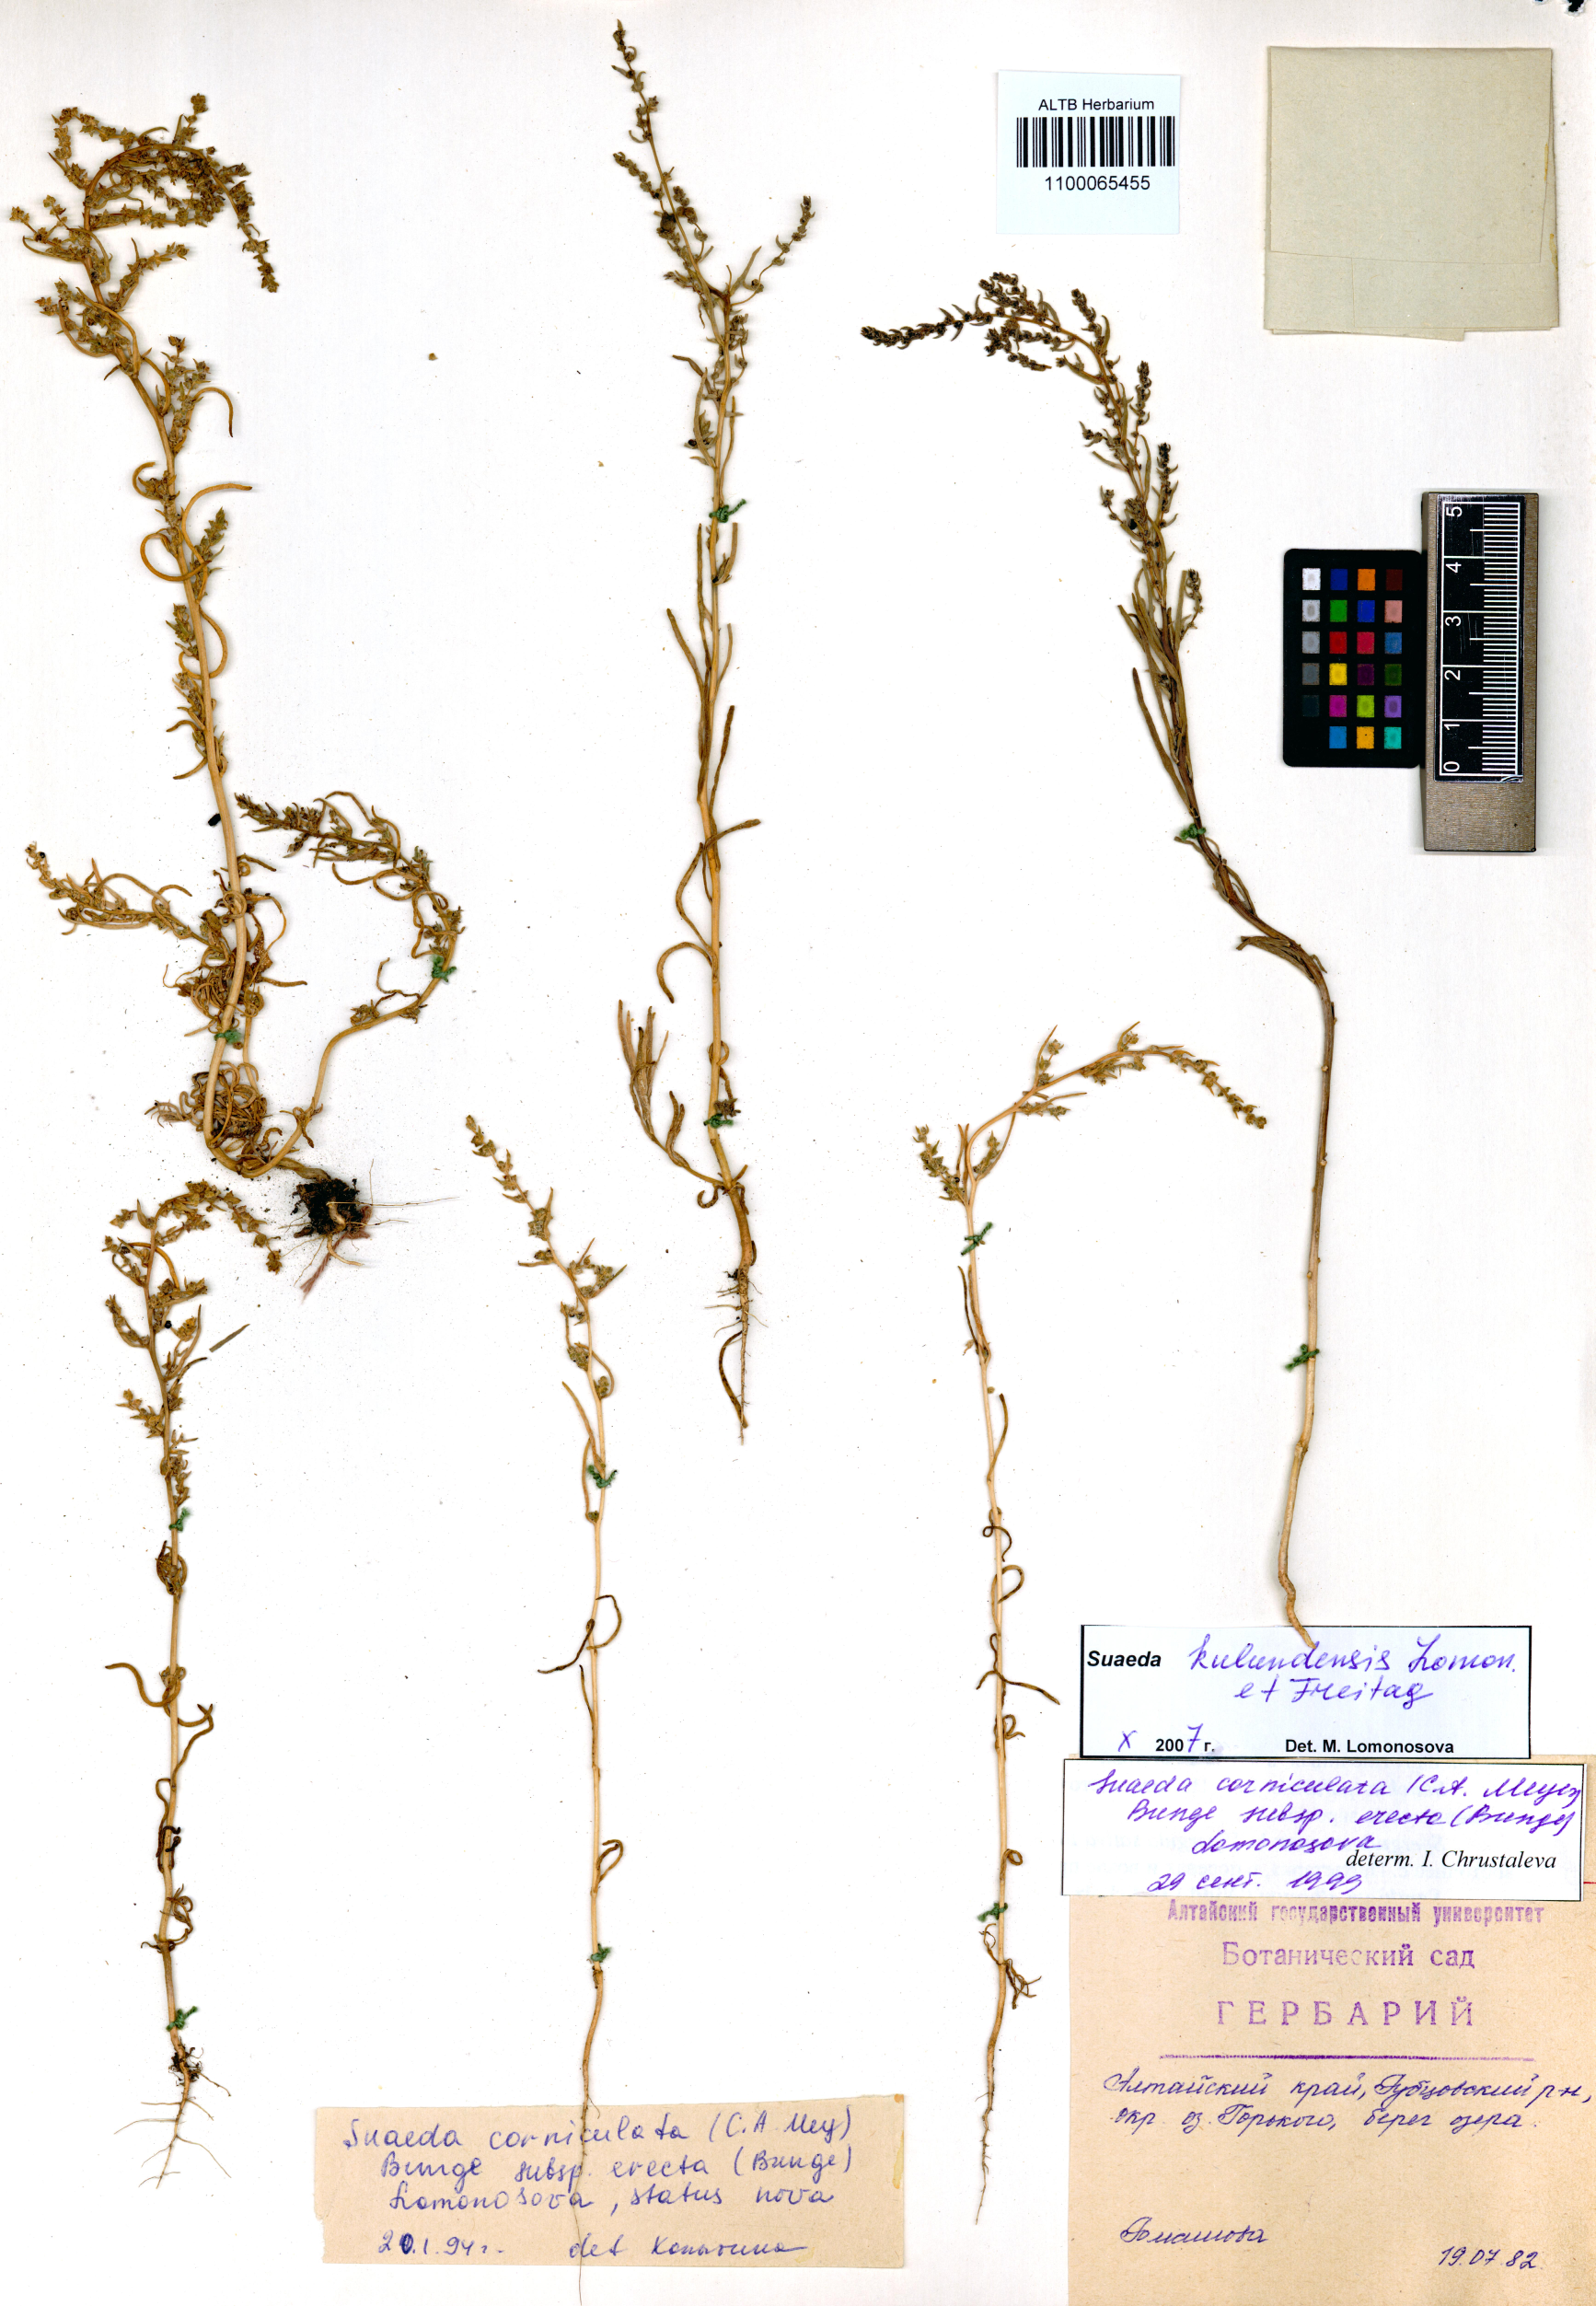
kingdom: Plantae
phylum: Tracheophyta
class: Magnoliopsida
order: Caryophyllales
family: Amaranthaceae
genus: Suaeda
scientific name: Suaeda kulundensis
